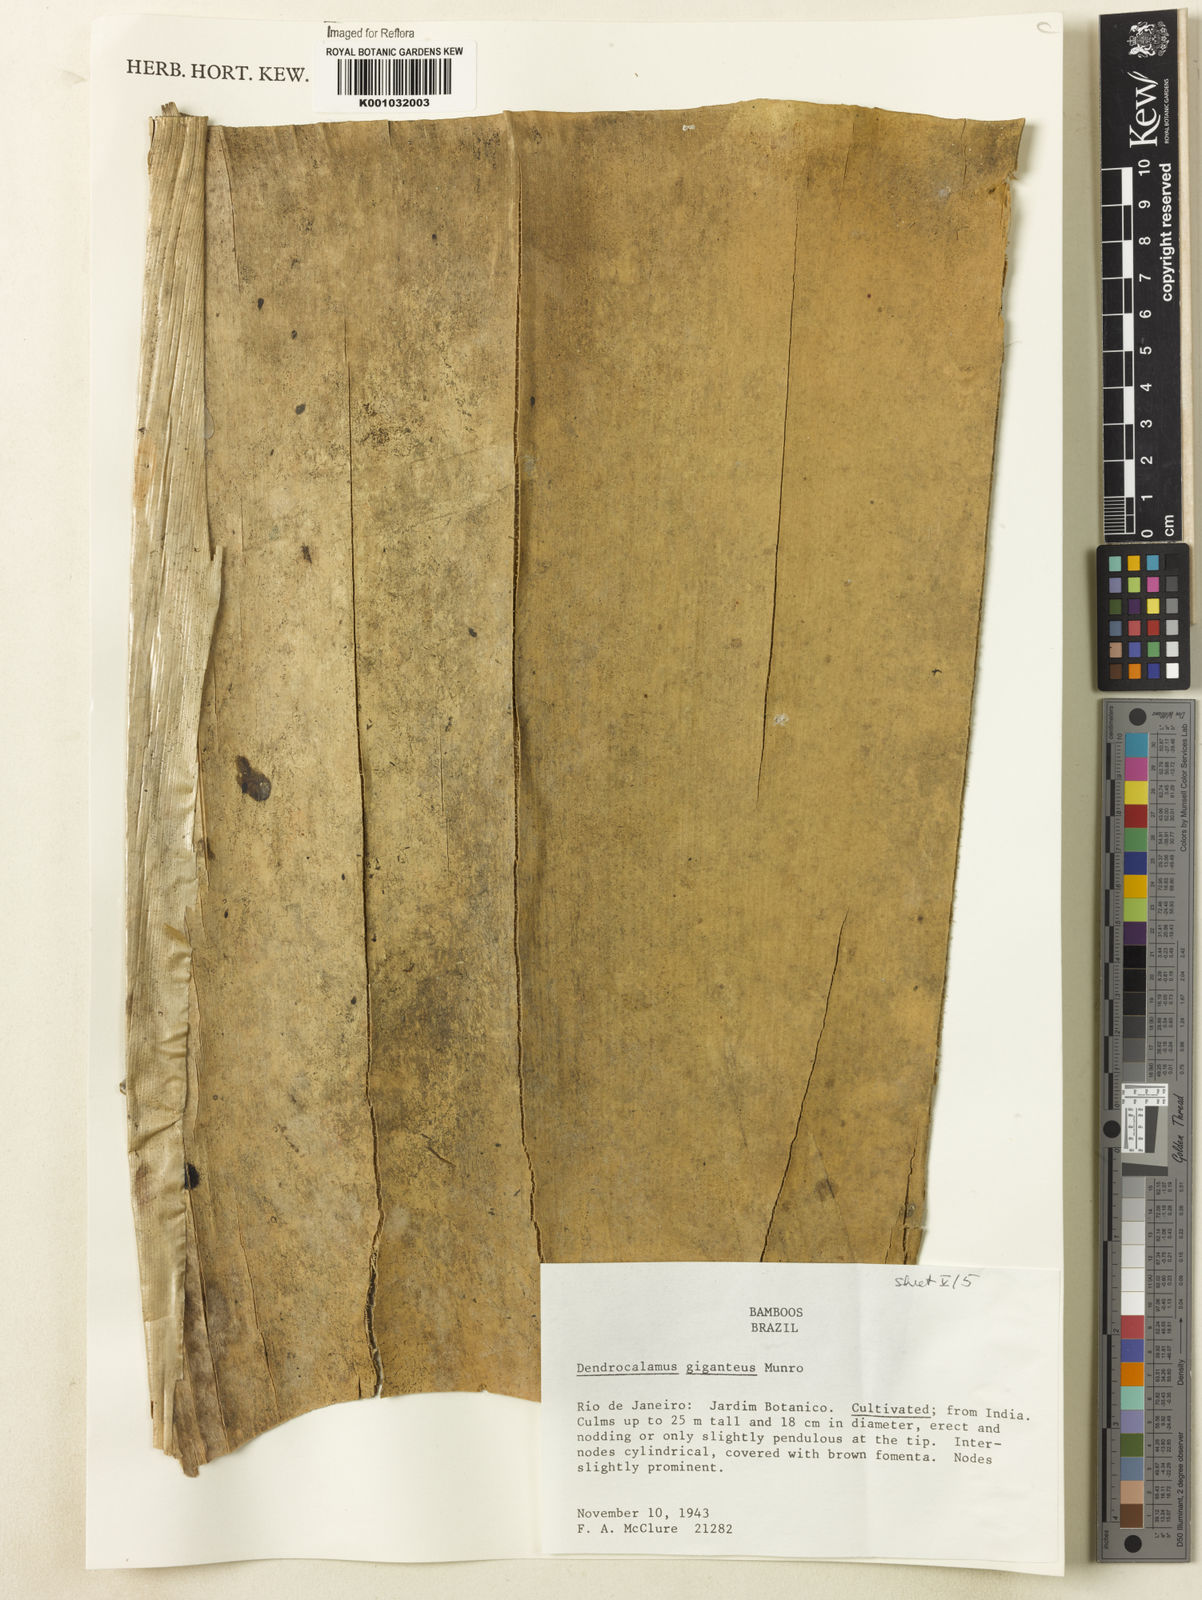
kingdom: Plantae
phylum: Tracheophyta
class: Liliopsida
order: Poales
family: Poaceae
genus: Dendrocalamus
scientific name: Dendrocalamus giganteus
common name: Giant bamboo
